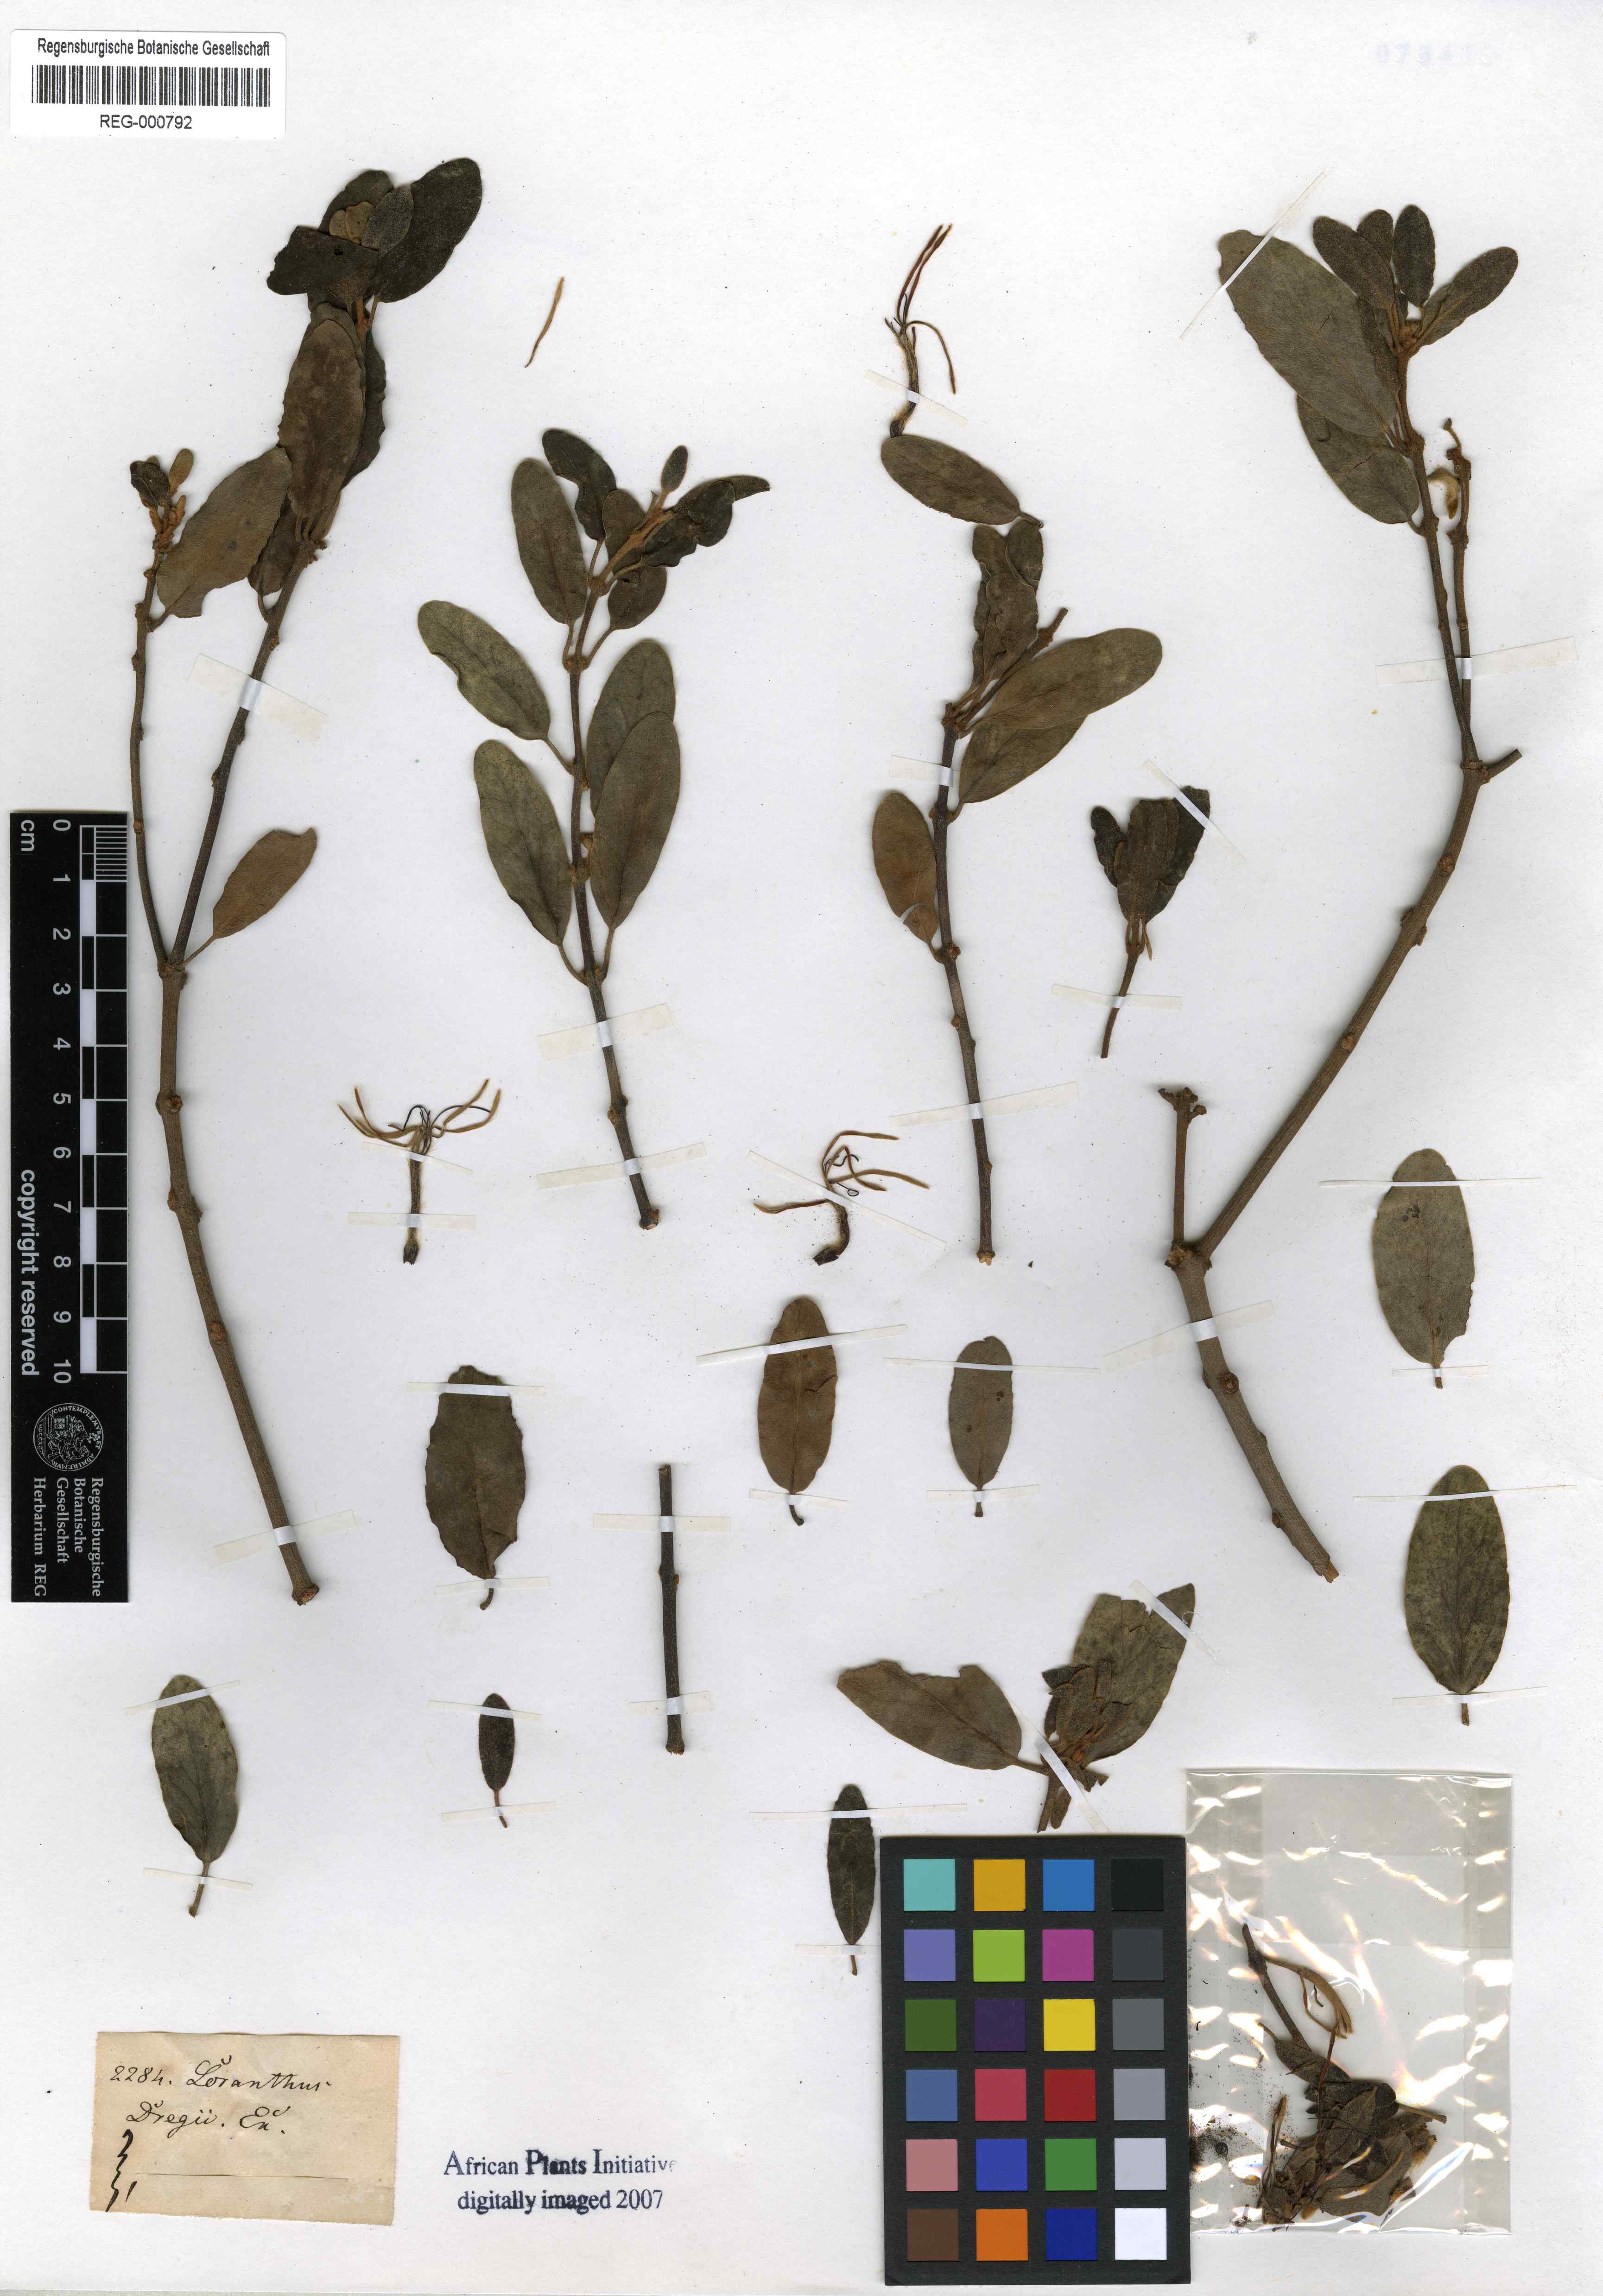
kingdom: Plantae
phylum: Tracheophyta
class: Magnoliopsida
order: Santalales
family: Loranthaceae
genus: Erianthemum
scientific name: Erianthemum dregei
